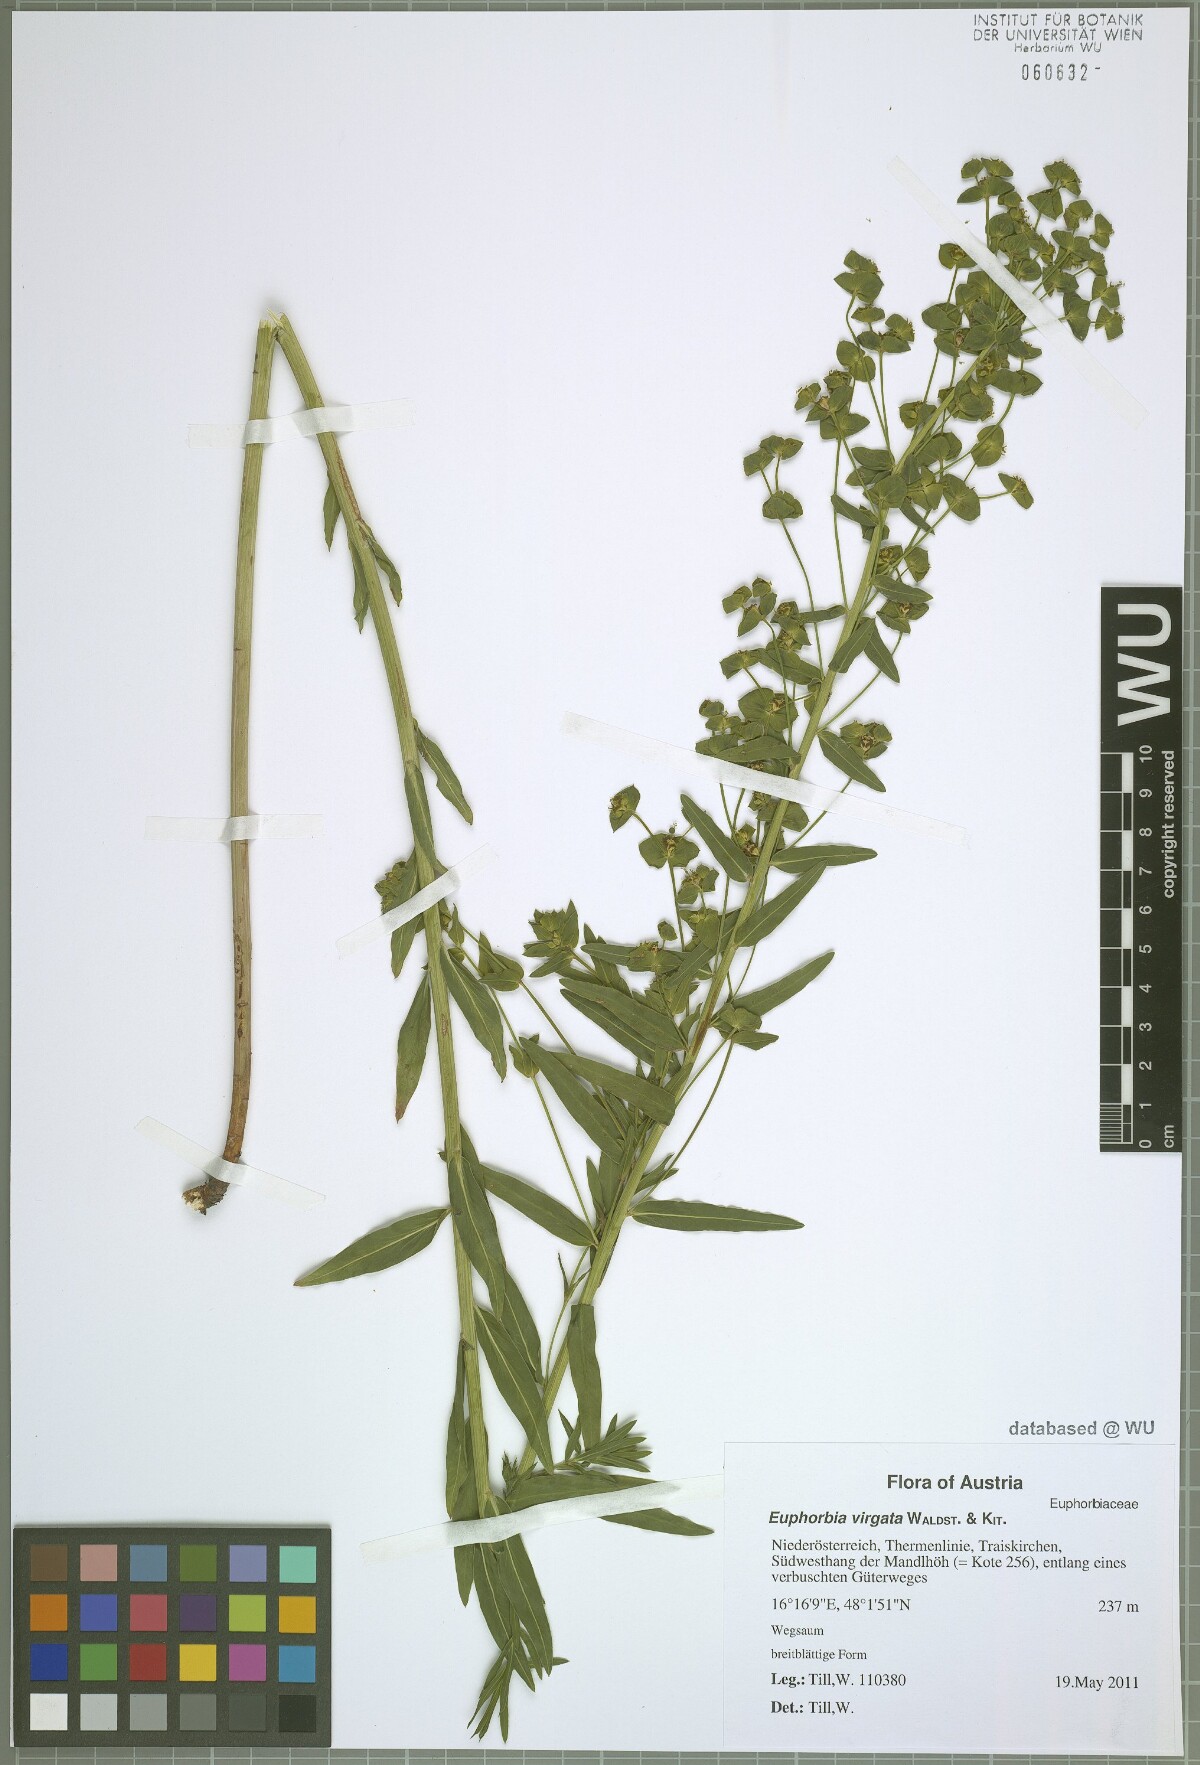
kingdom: Plantae
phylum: Tracheophyta
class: Magnoliopsida
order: Malpighiales
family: Euphorbiaceae
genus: Euphorbia
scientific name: Euphorbia virgata
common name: Leafy spurge
